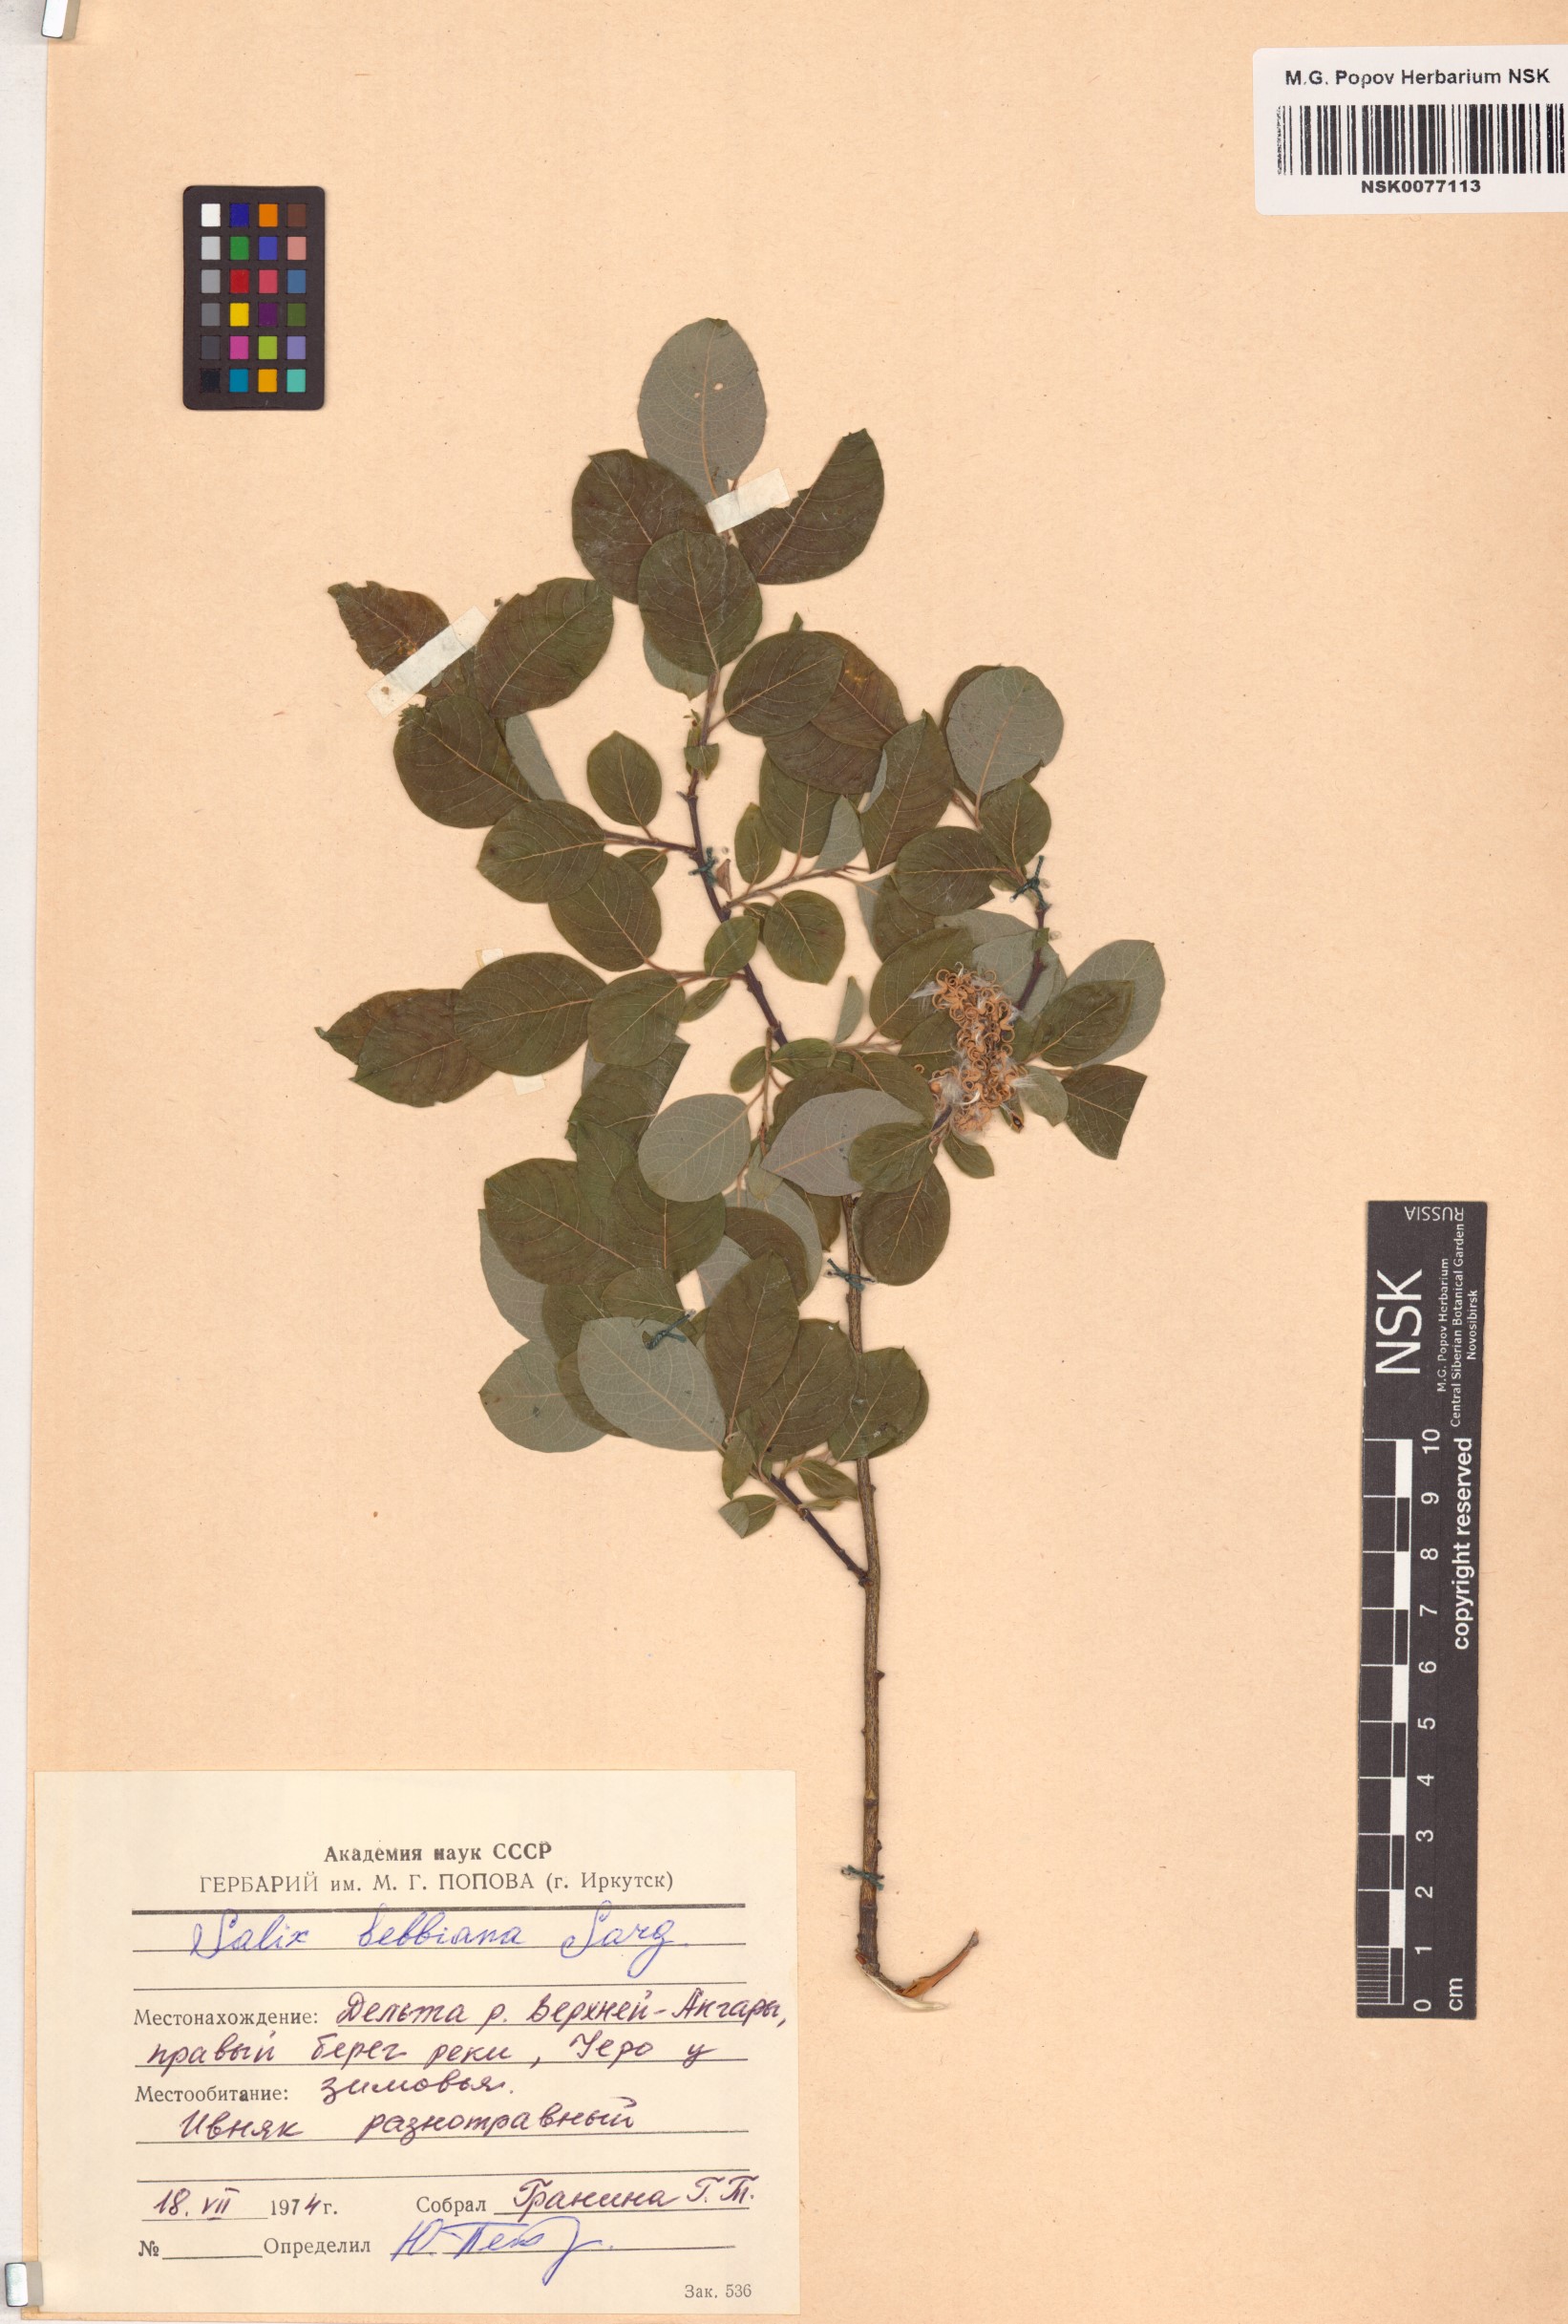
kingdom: Plantae
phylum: Tracheophyta
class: Magnoliopsida
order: Malpighiales
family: Salicaceae
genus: Salix
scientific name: Salix bebbiana
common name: Bebb's willow
